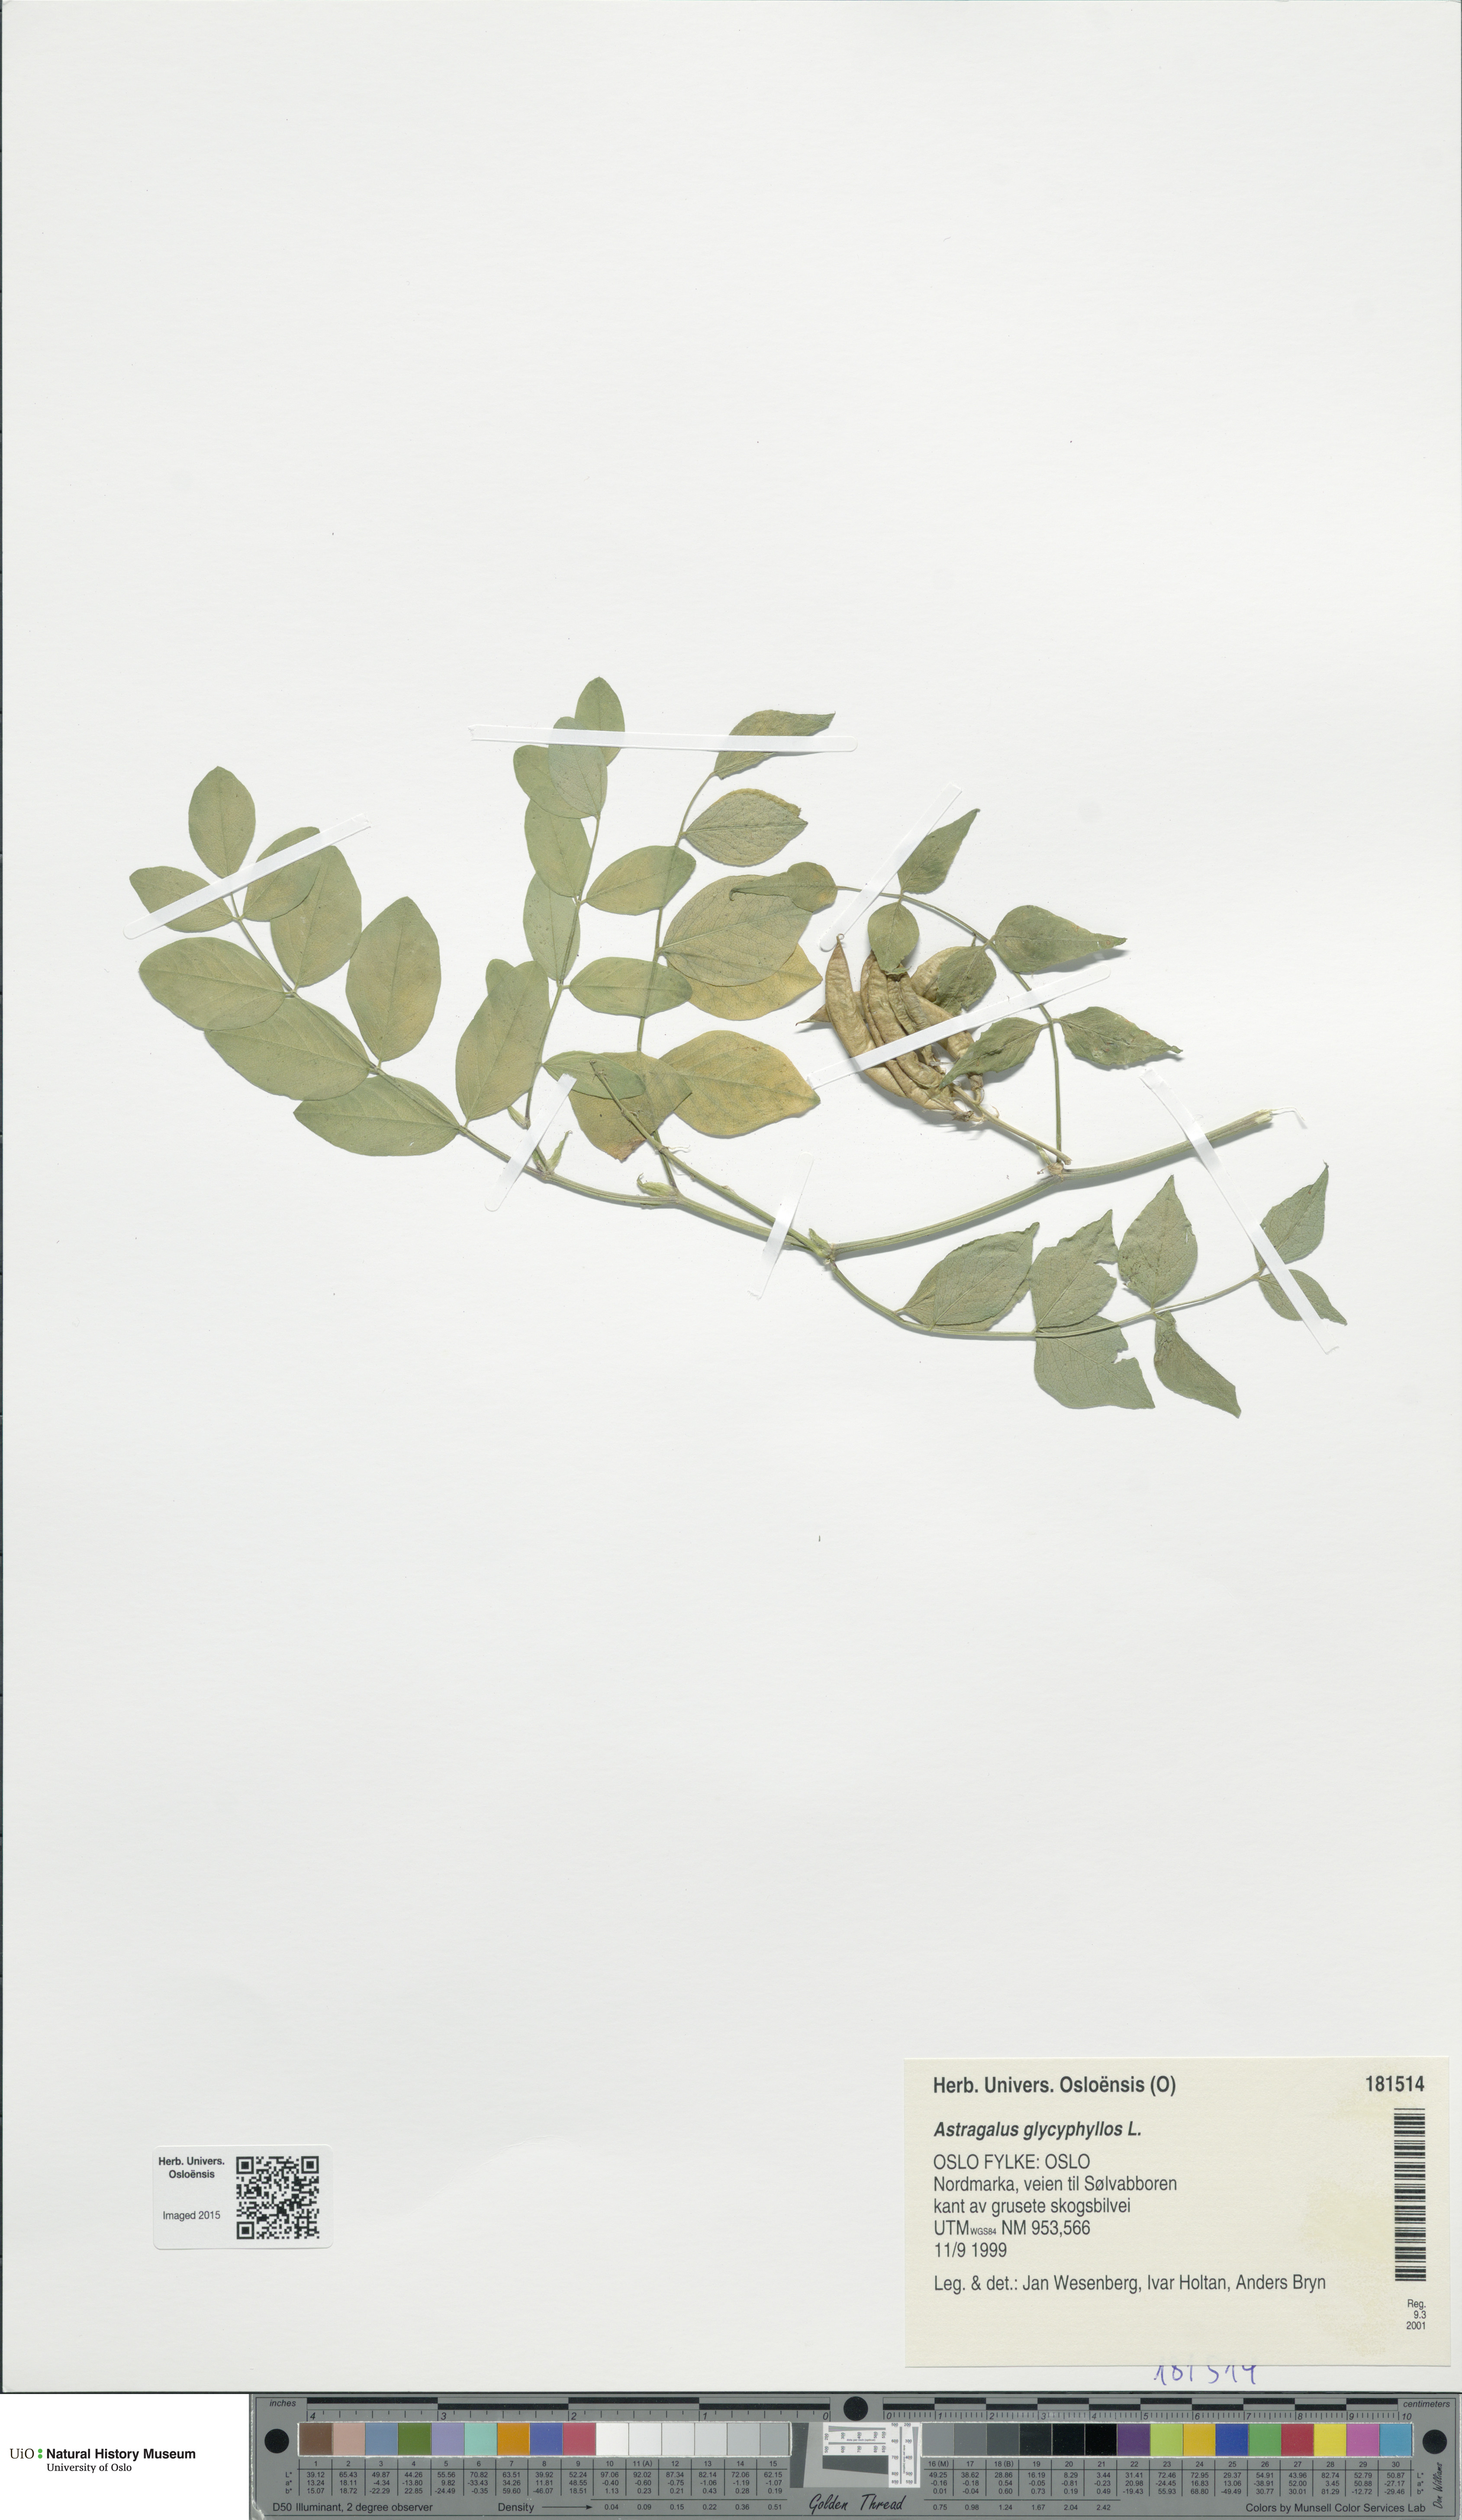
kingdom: Plantae
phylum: Tracheophyta
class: Magnoliopsida
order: Fabales
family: Fabaceae
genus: Astragalus
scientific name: Astragalus glycyphyllos
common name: Wild liquorice
